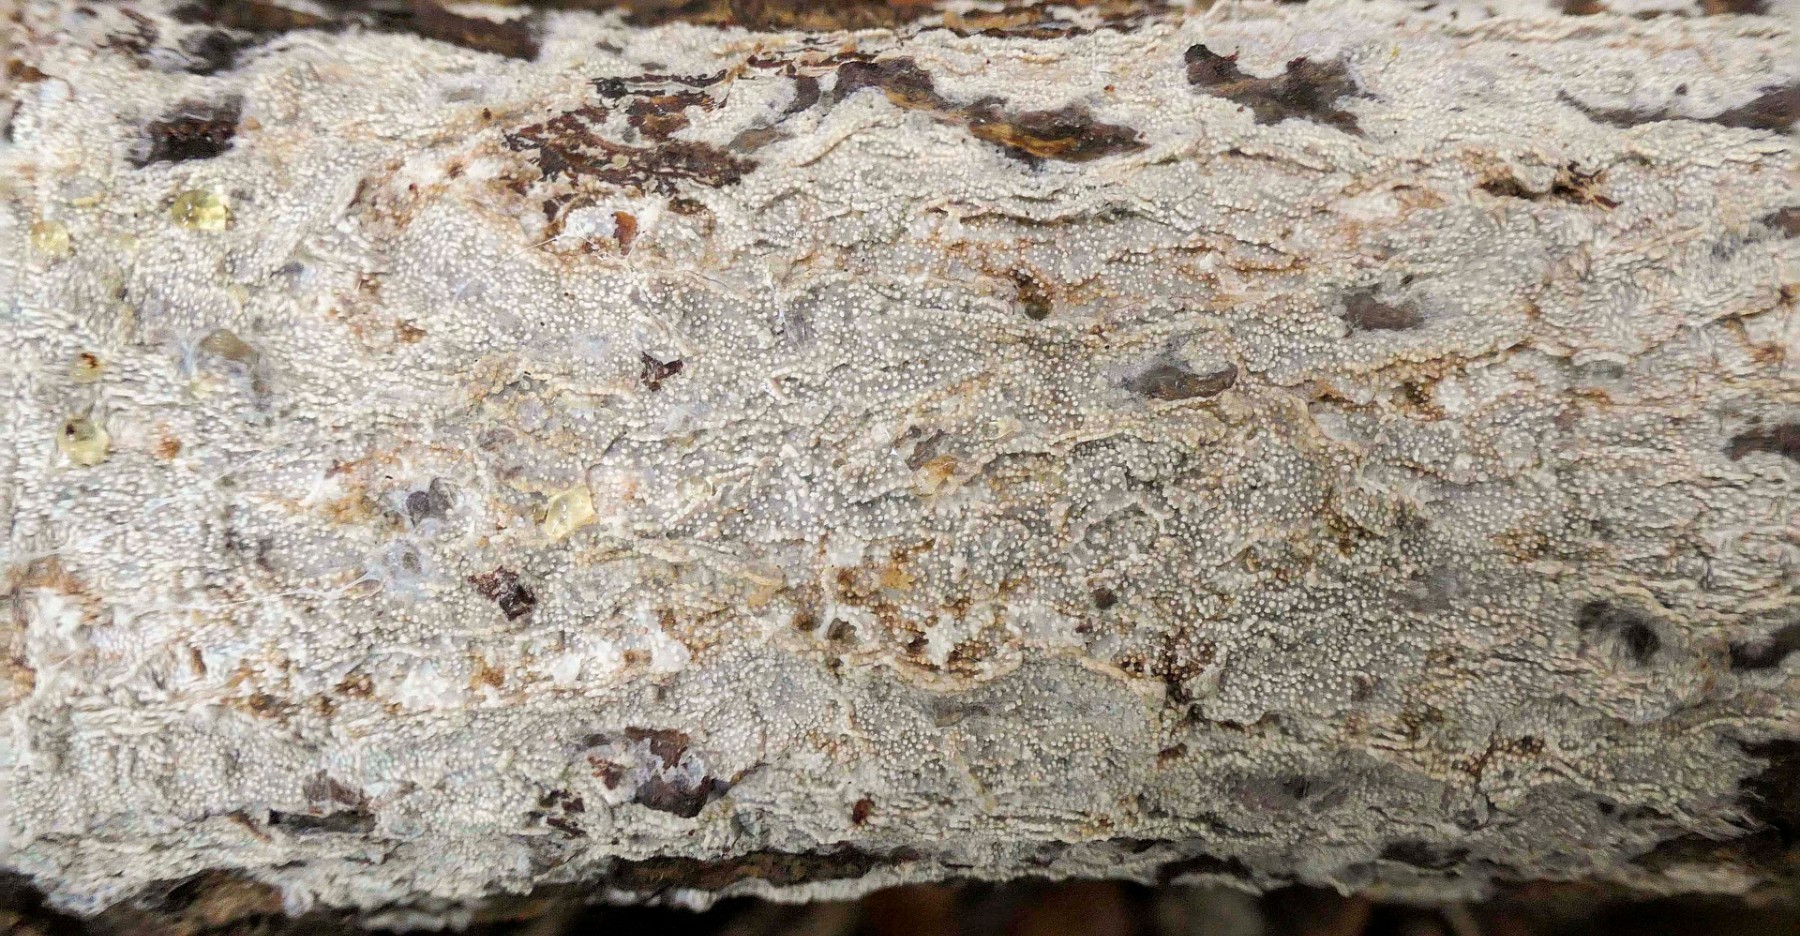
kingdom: Fungi
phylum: Basidiomycota
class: Agaricomycetes
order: Hymenochaetales
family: Rickenellaceae
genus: Resinicium
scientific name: Resinicium bicolor
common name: almindelig vokstand
